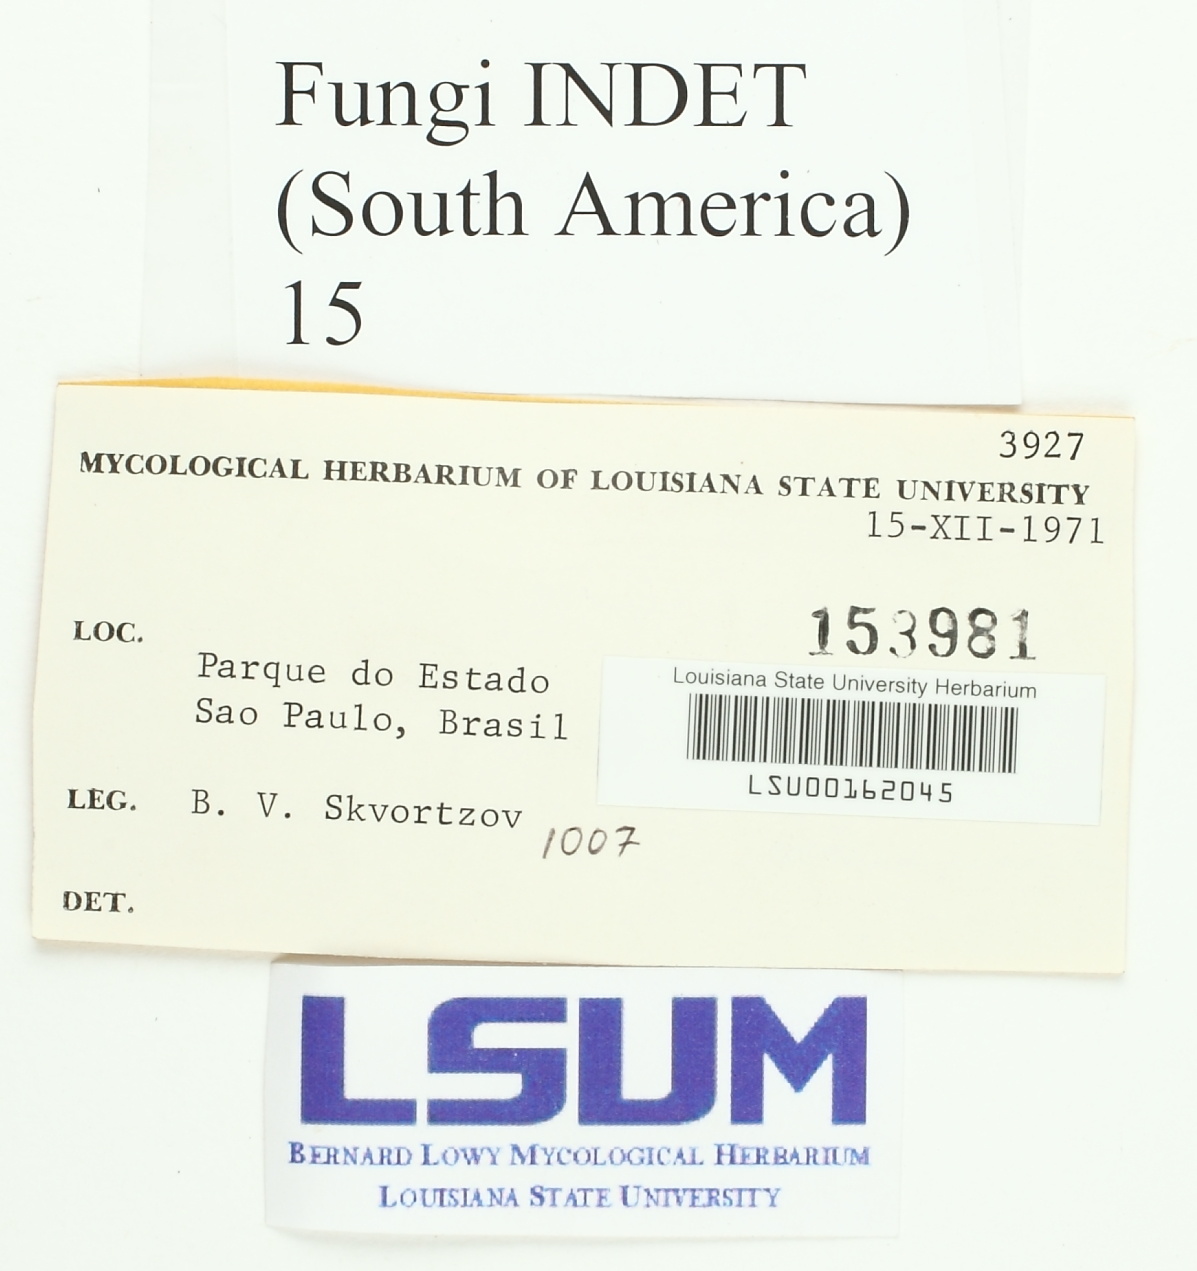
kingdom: Fungi
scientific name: Fungi
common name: Fungi
